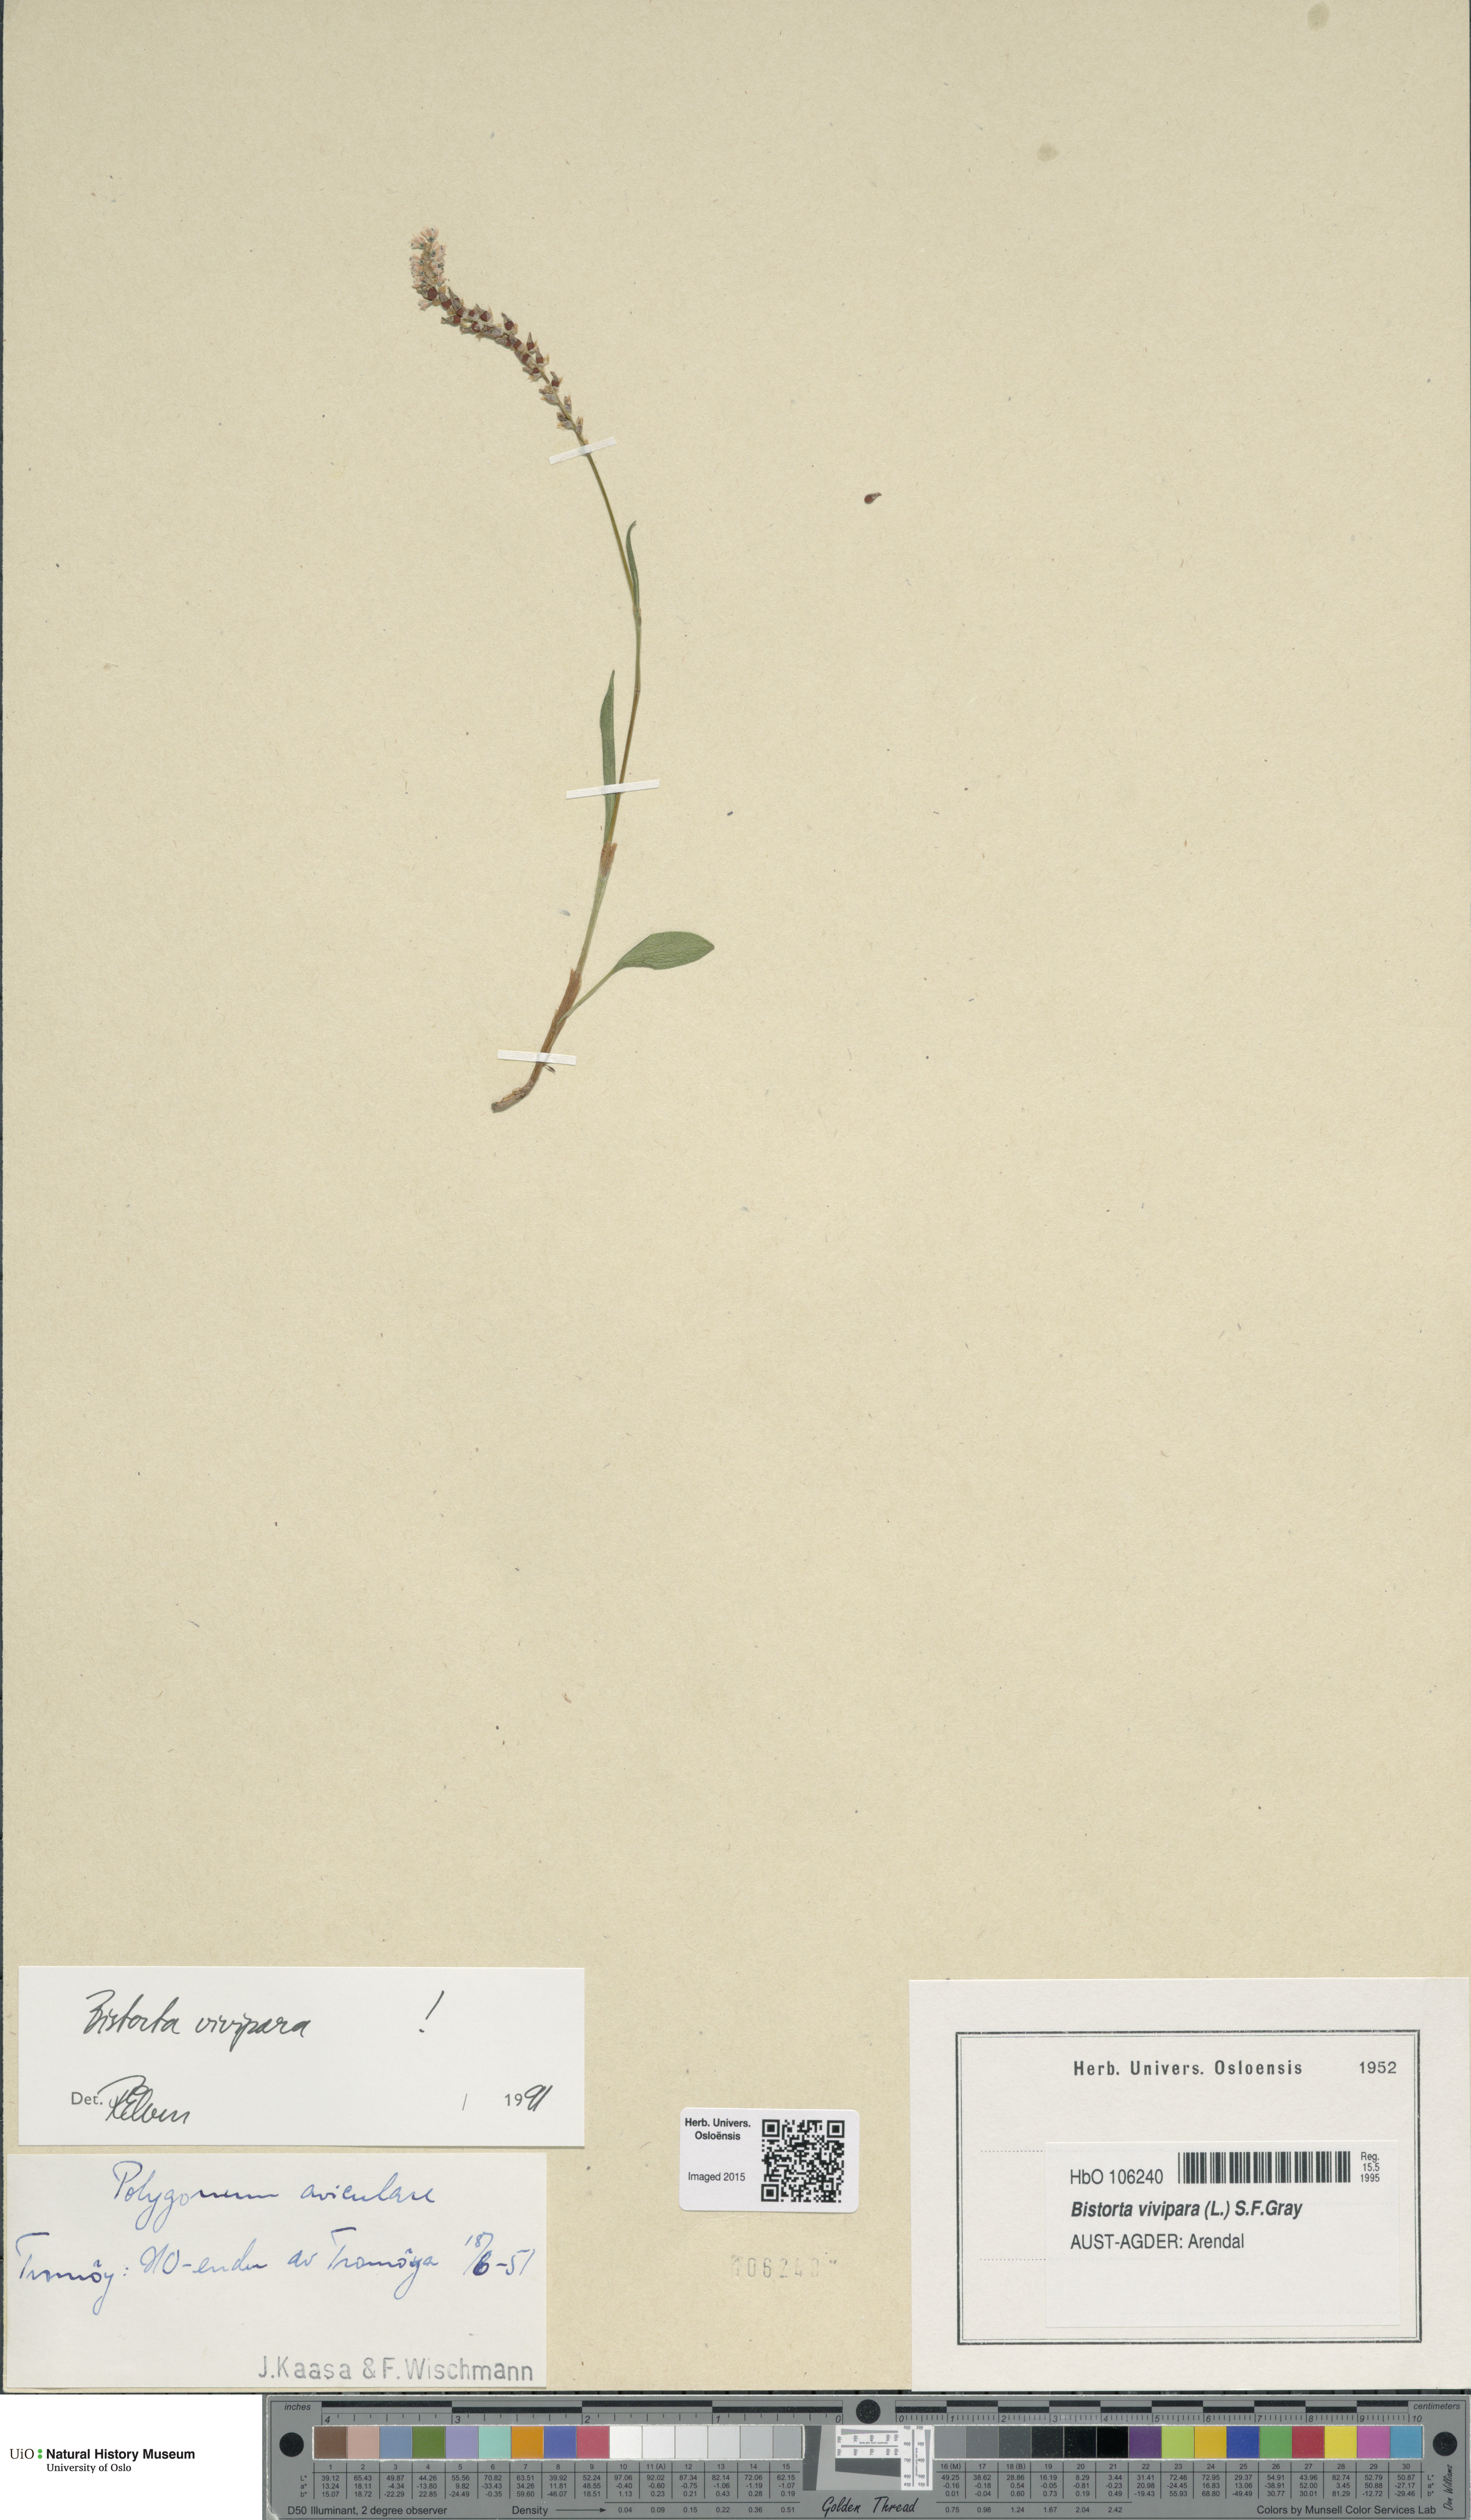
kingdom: Plantae
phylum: Tracheophyta
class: Magnoliopsida
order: Caryophyllales
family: Polygonaceae
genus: Bistorta
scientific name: Bistorta vivipara
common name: Alpine bistort
